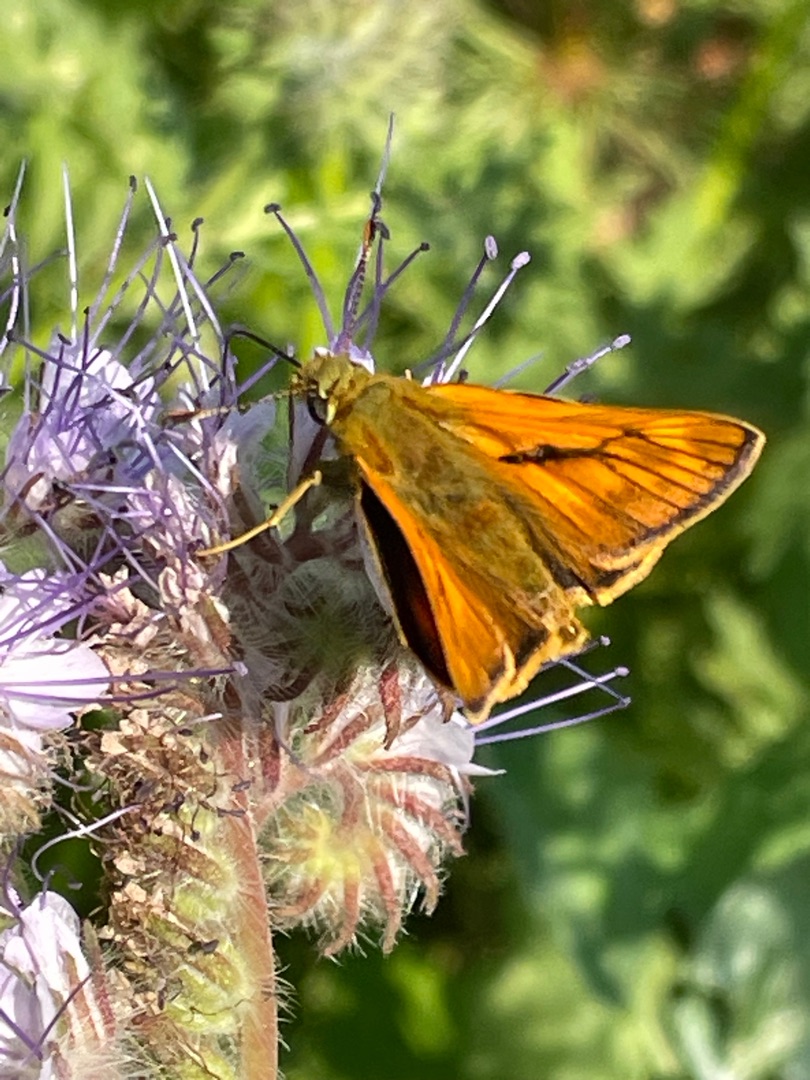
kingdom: Animalia
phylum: Arthropoda
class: Insecta
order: Lepidoptera
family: Hesperiidae
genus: Ochlodes
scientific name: Ochlodes venata
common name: Stor bredpande
